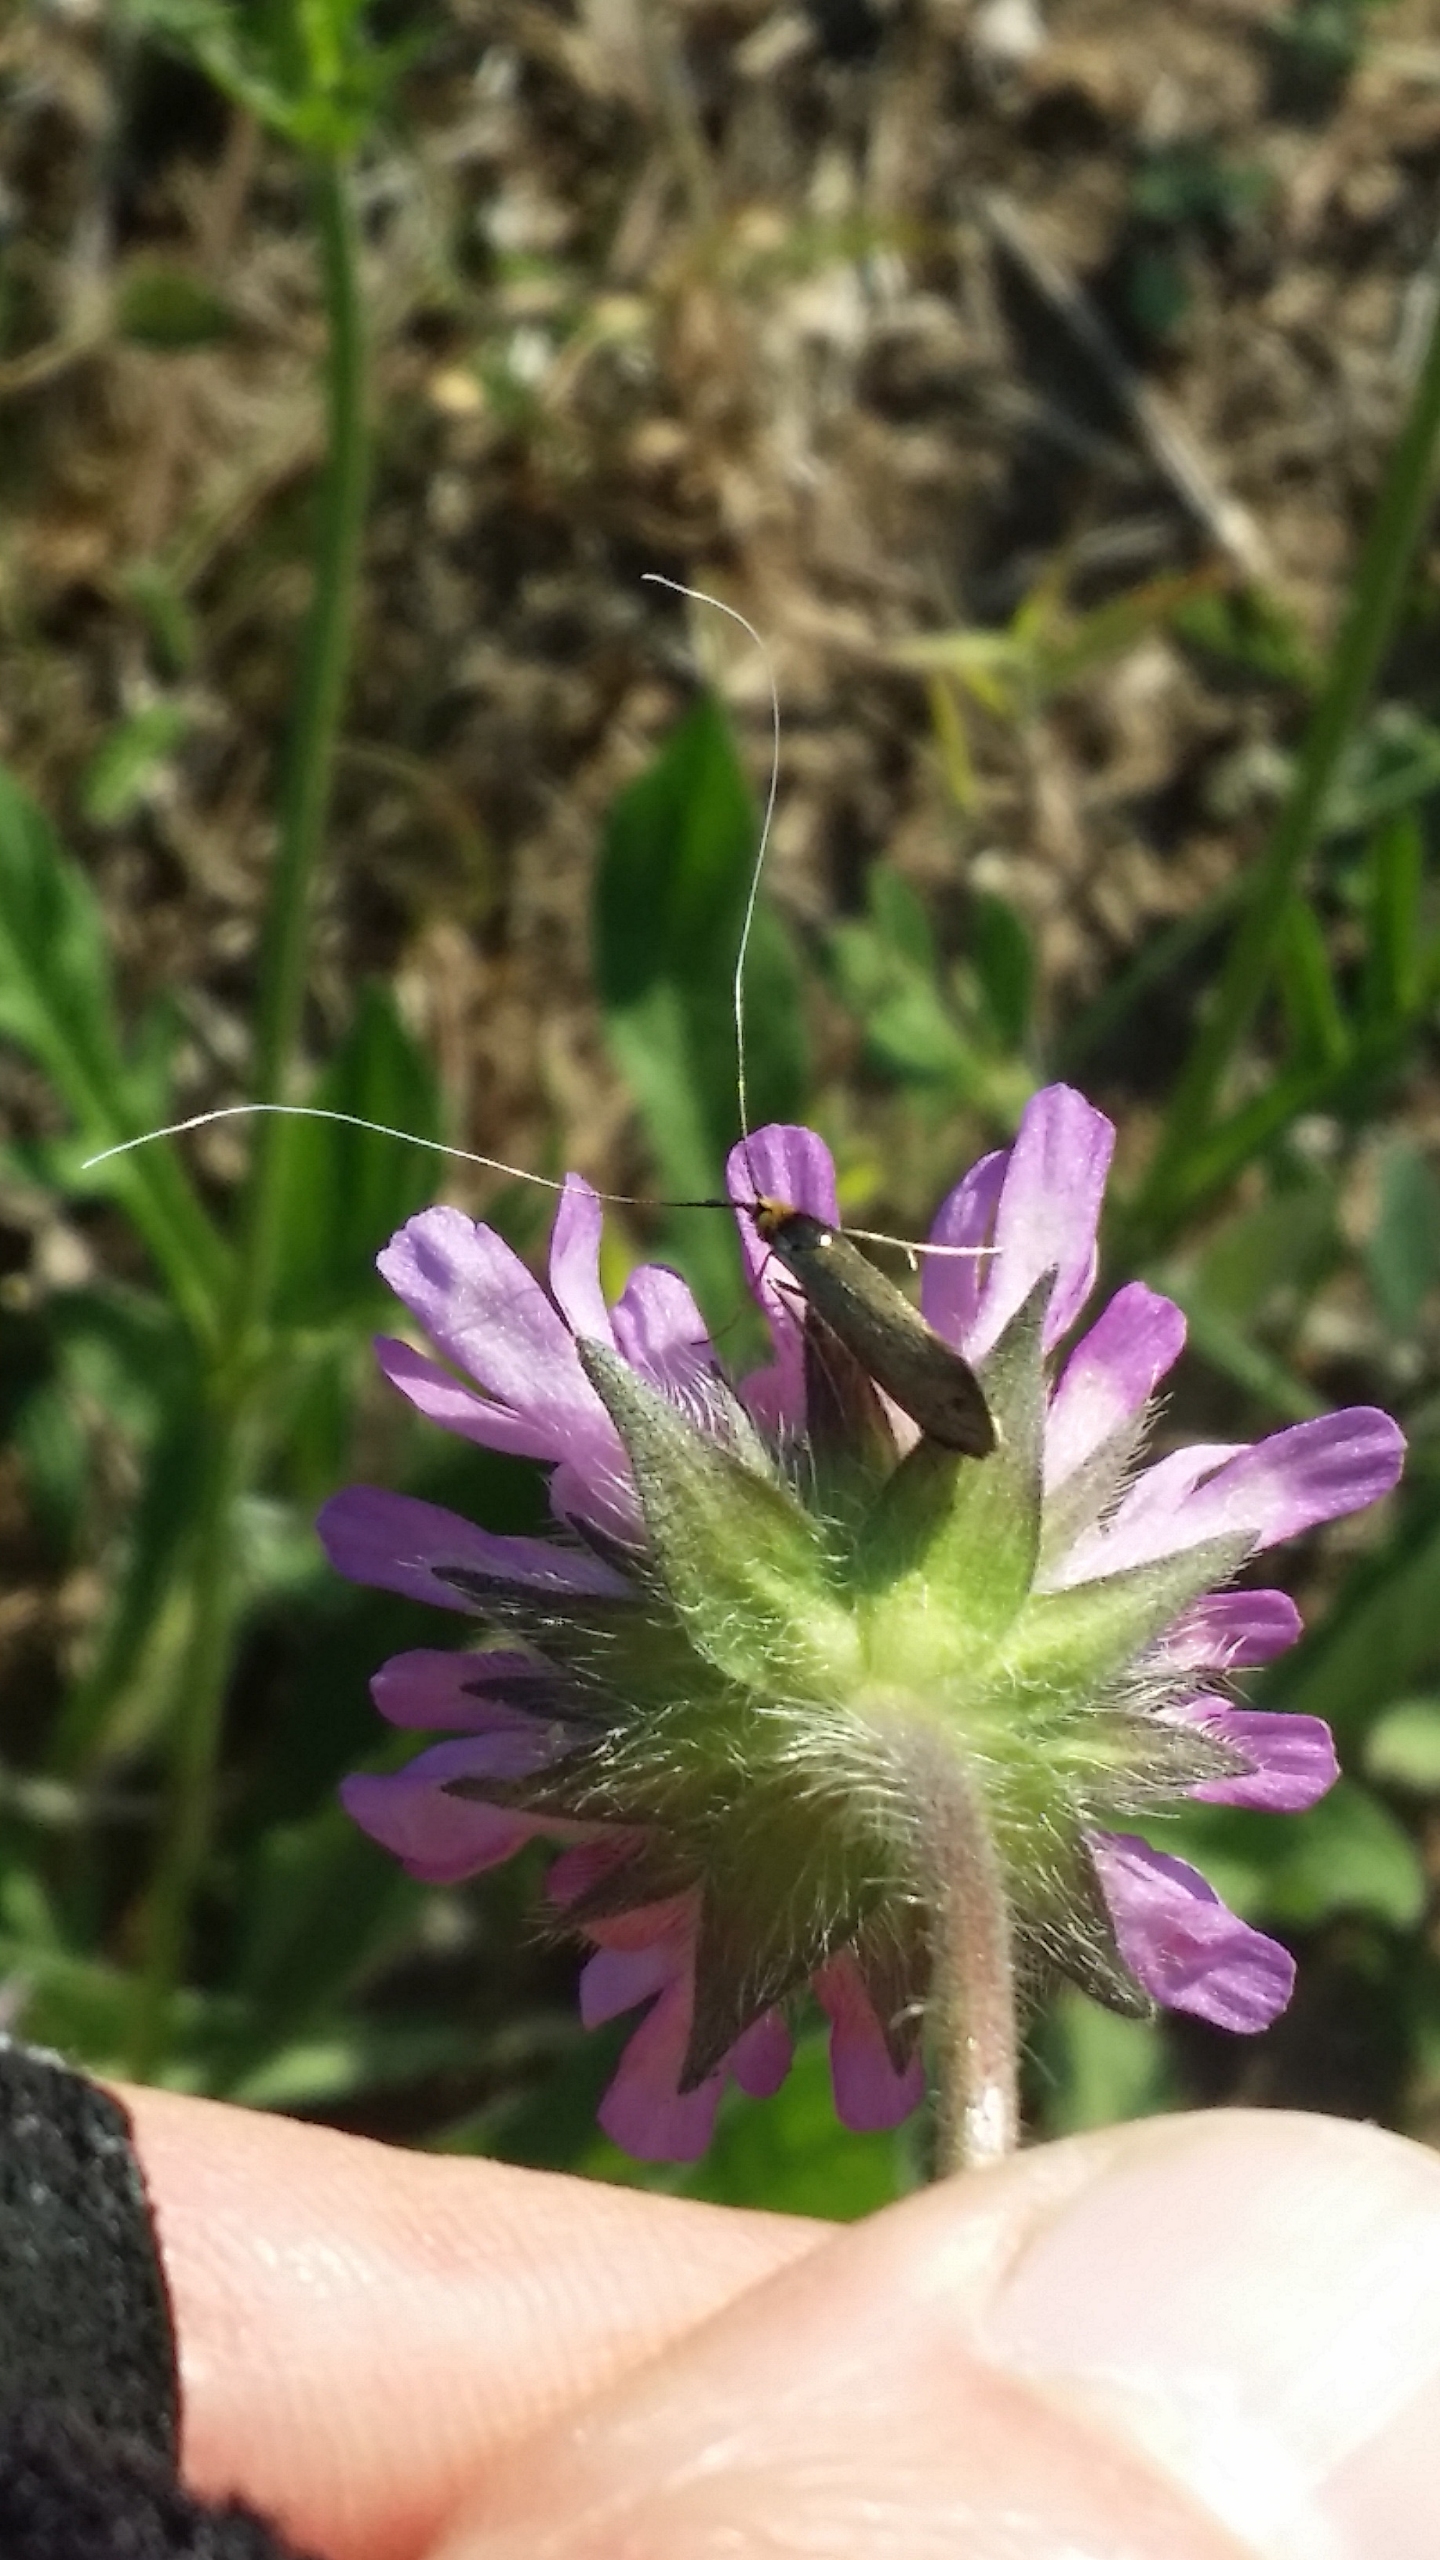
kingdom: Animalia
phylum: Arthropoda
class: Insecta
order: Lepidoptera
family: Adelidae
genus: Nemophora
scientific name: Nemophora cupriacella
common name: Blåhatlanghornsmøl
